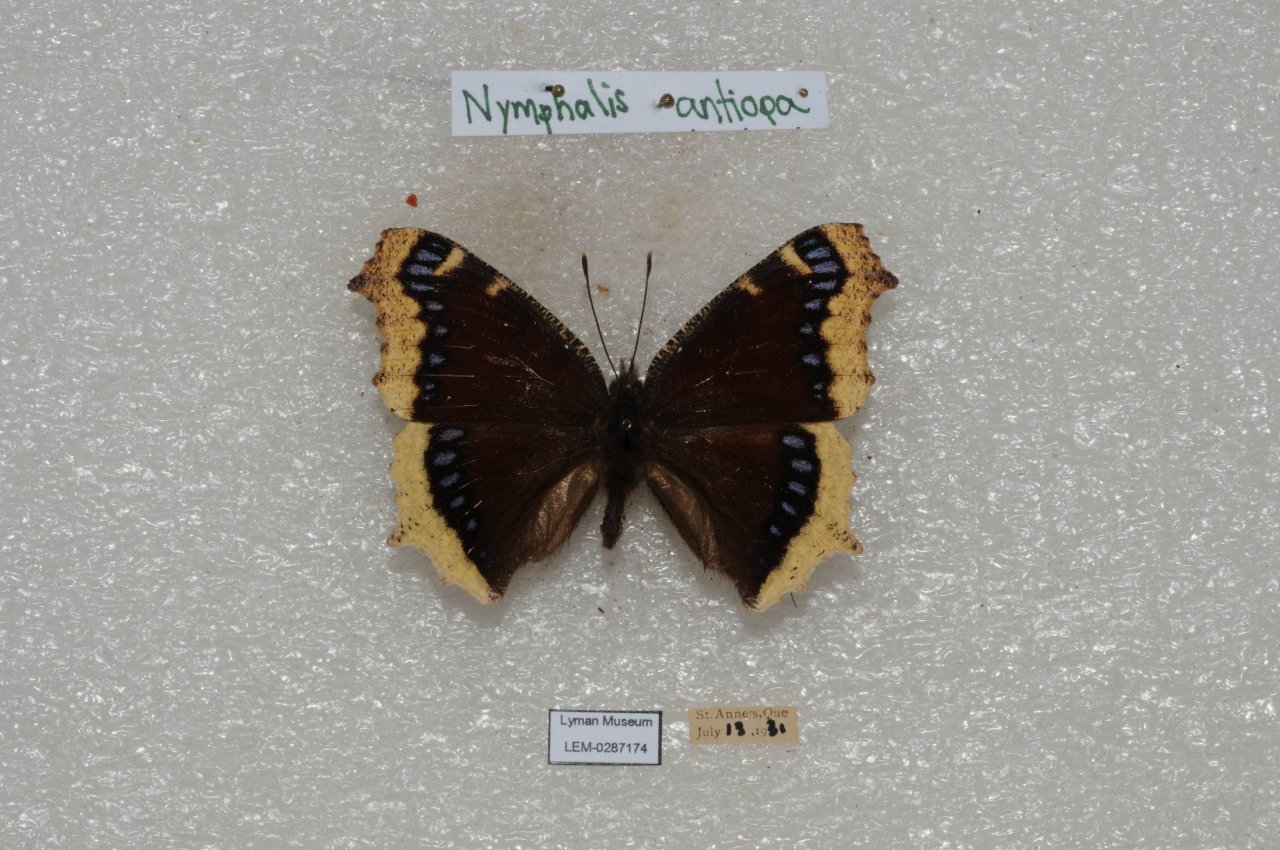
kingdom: Animalia
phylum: Arthropoda
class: Insecta
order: Lepidoptera
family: Nymphalidae
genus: Nymphalis
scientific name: Nymphalis antiopa
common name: Mourning Cloak
